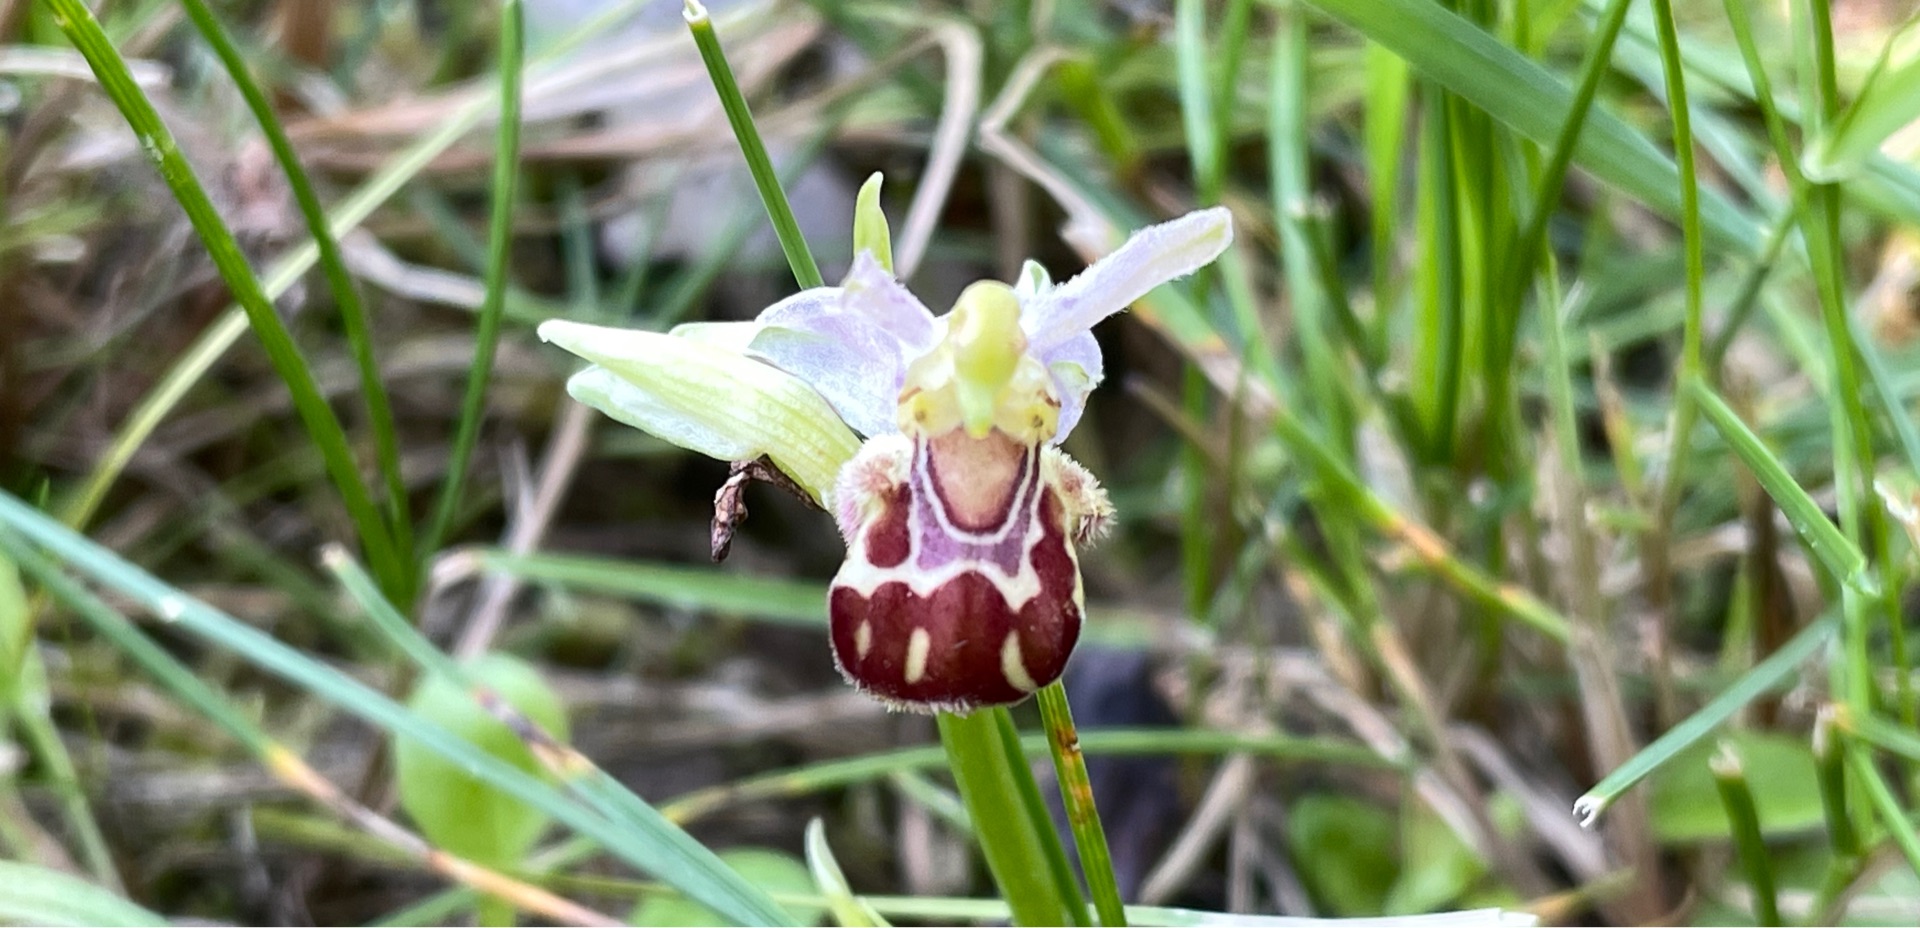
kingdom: Plantae
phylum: Tracheophyta
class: Liliopsida
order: Asparagales
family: Orchidaceae
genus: Ophrys
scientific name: Ophrys apifera
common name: Biblomst
